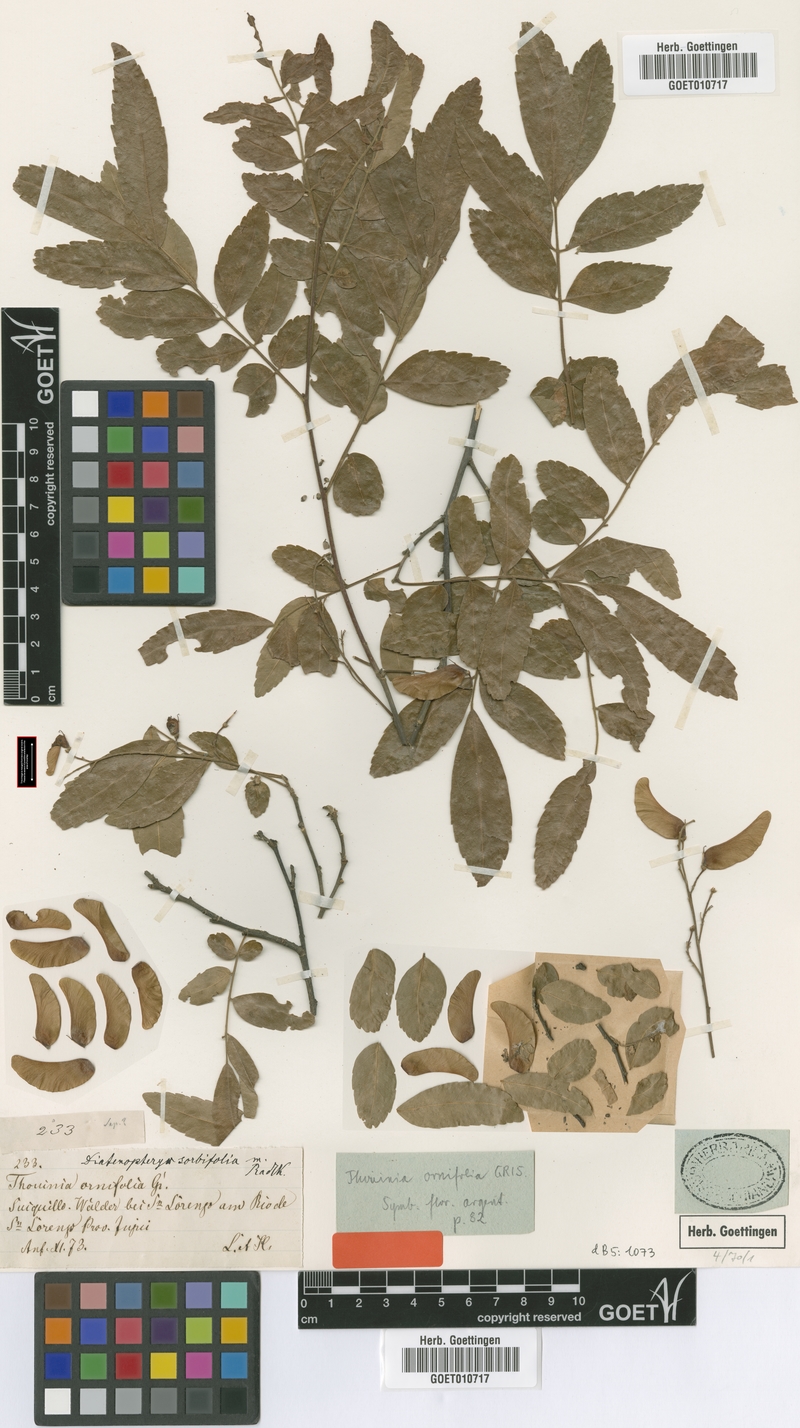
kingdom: Plantae
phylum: Tracheophyta
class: Magnoliopsida
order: Sapindales
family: Sapindaceae
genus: Diatenopteryx
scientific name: Diatenopteryx sorbifolia
